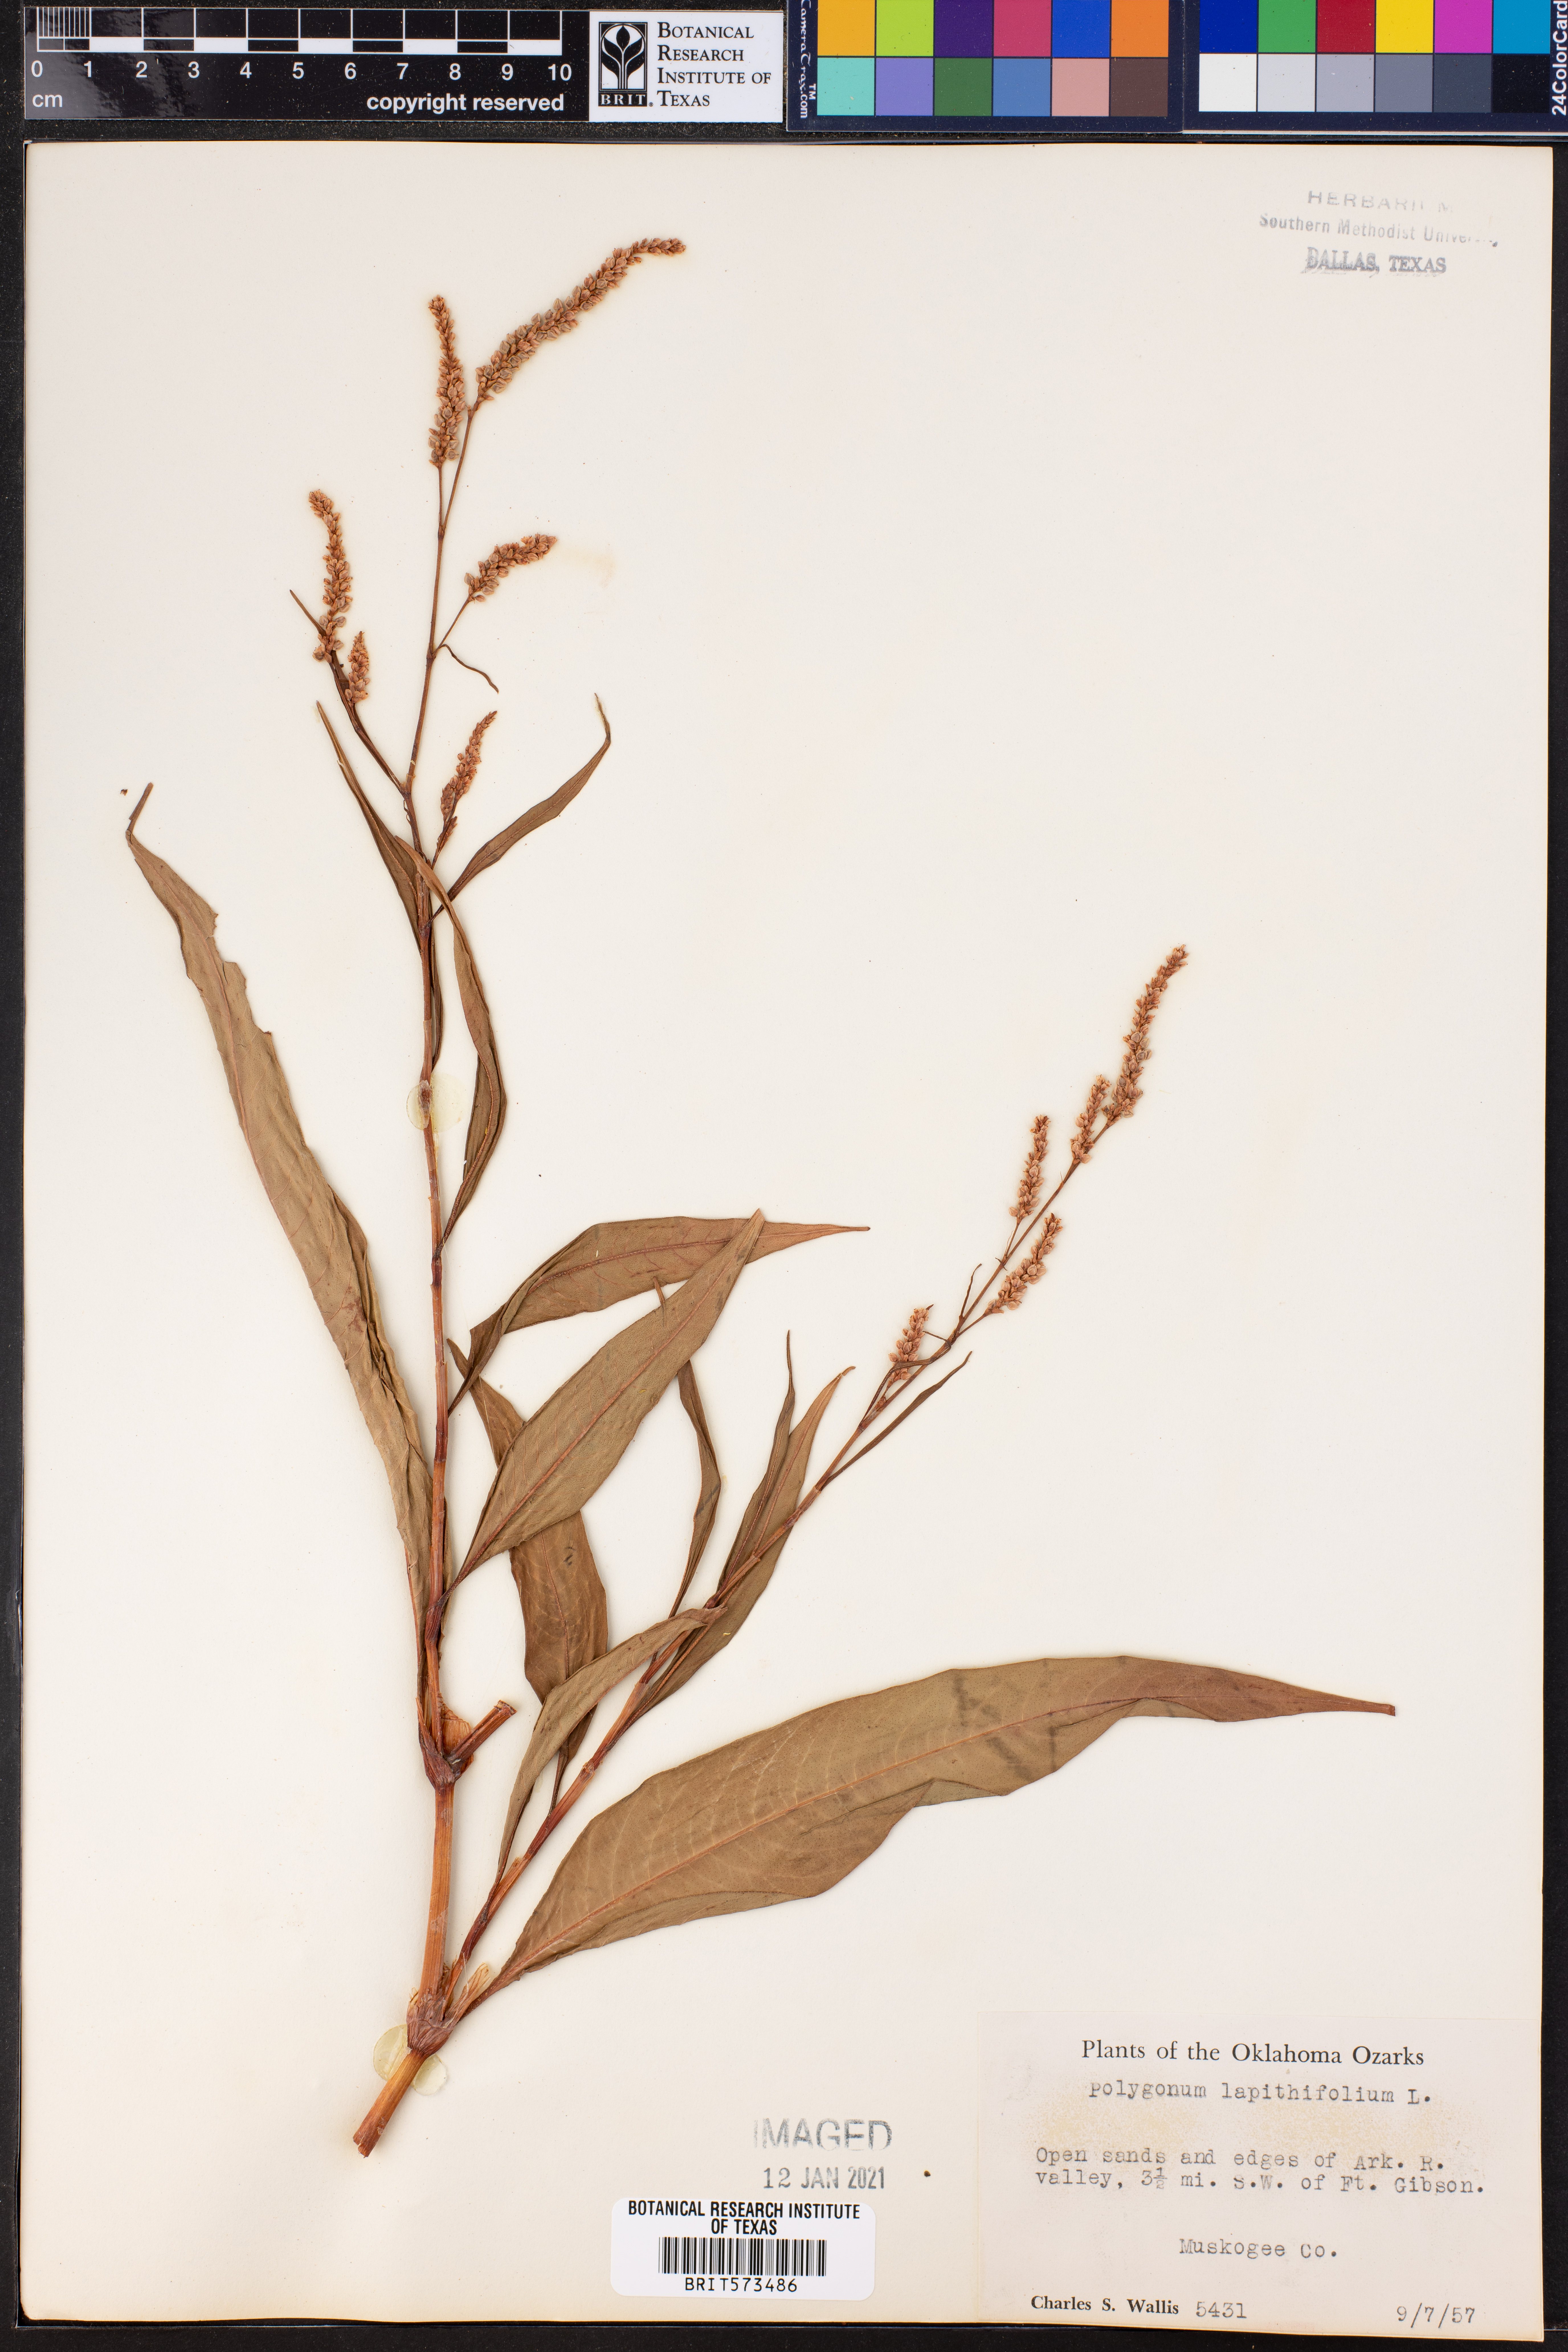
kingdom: Plantae
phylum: Tracheophyta
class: Magnoliopsida
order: Caryophyllales
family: Polygonaceae
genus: Persicaria
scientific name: Persicaria lapathifolia
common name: Curlytop knotweed
